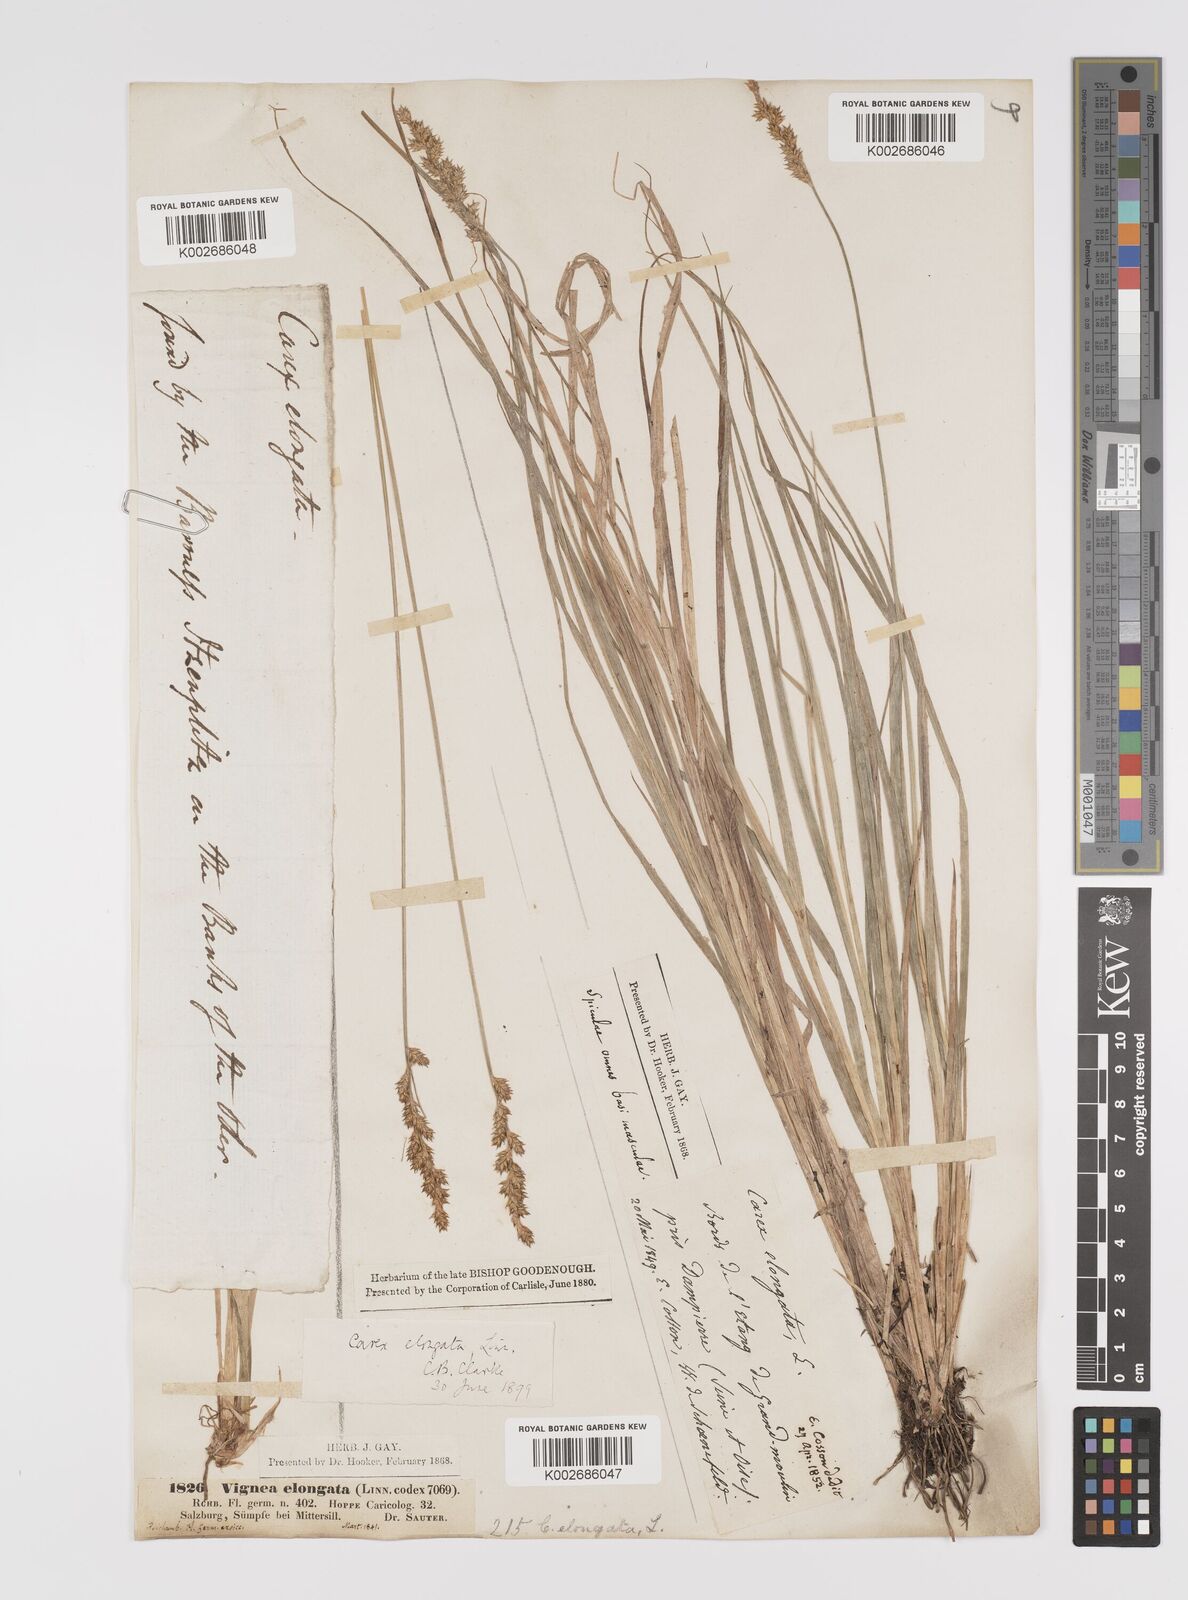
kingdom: Plantae
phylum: Tracheophyta
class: Liliopsida
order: Poales
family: Cyperaceae
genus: Carex
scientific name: Carex elongata
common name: Elongated sedge
